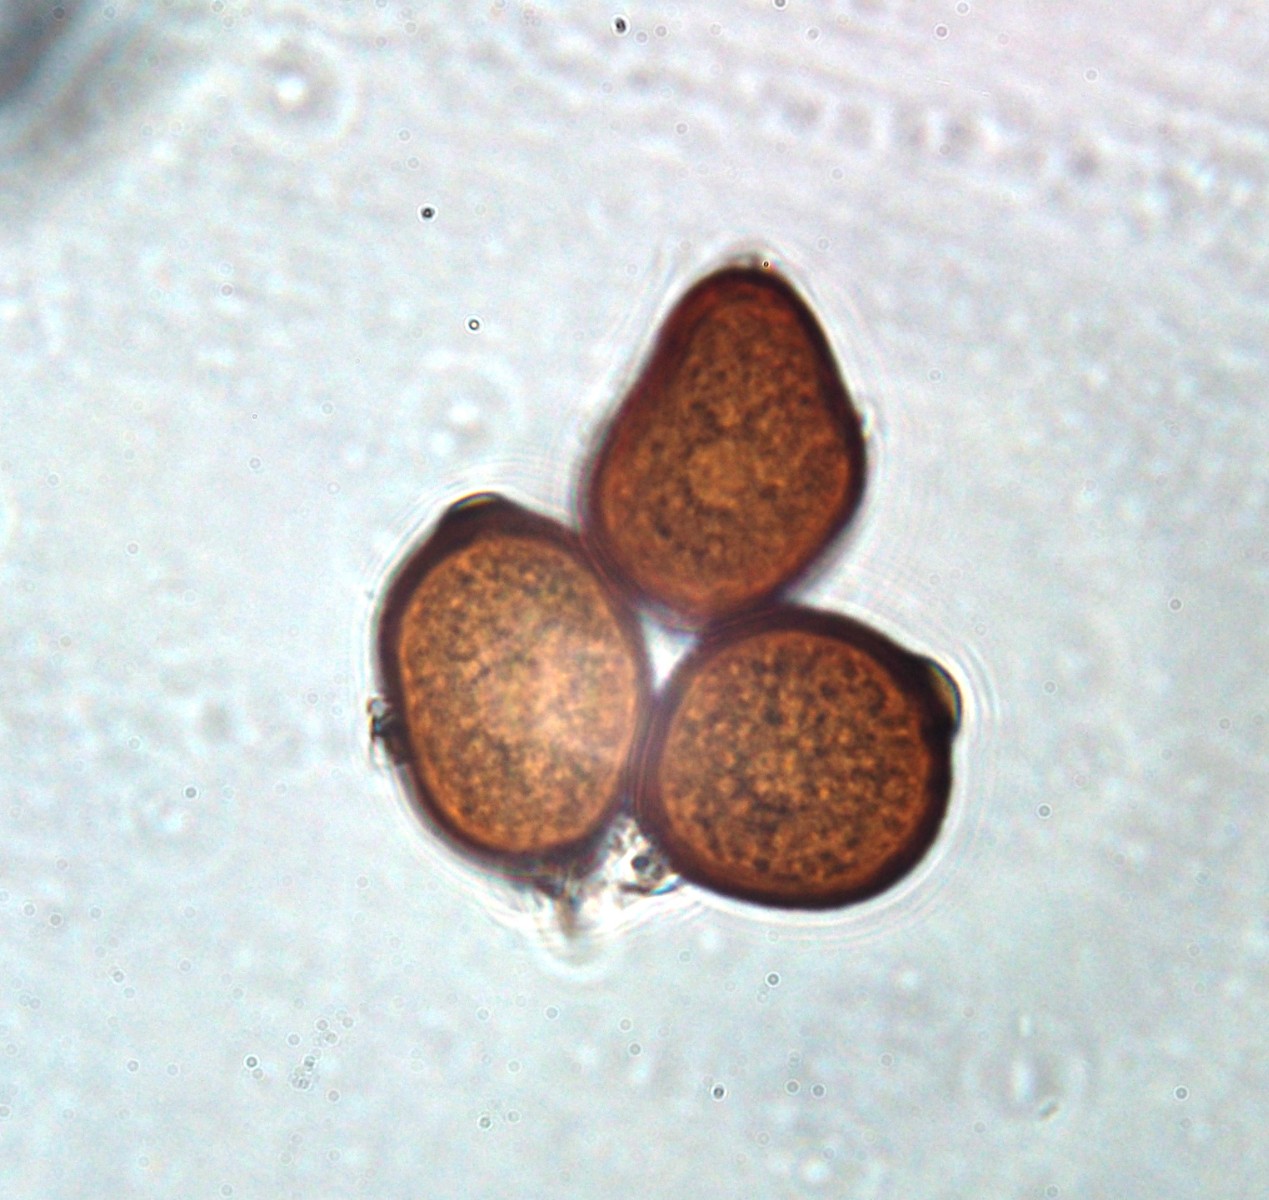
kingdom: Fungi
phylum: Basidiomycota
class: Pucciniomycetes
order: Pucciniales
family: Pucciniaceae
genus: Uromyces
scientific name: Uromyces rumicis
